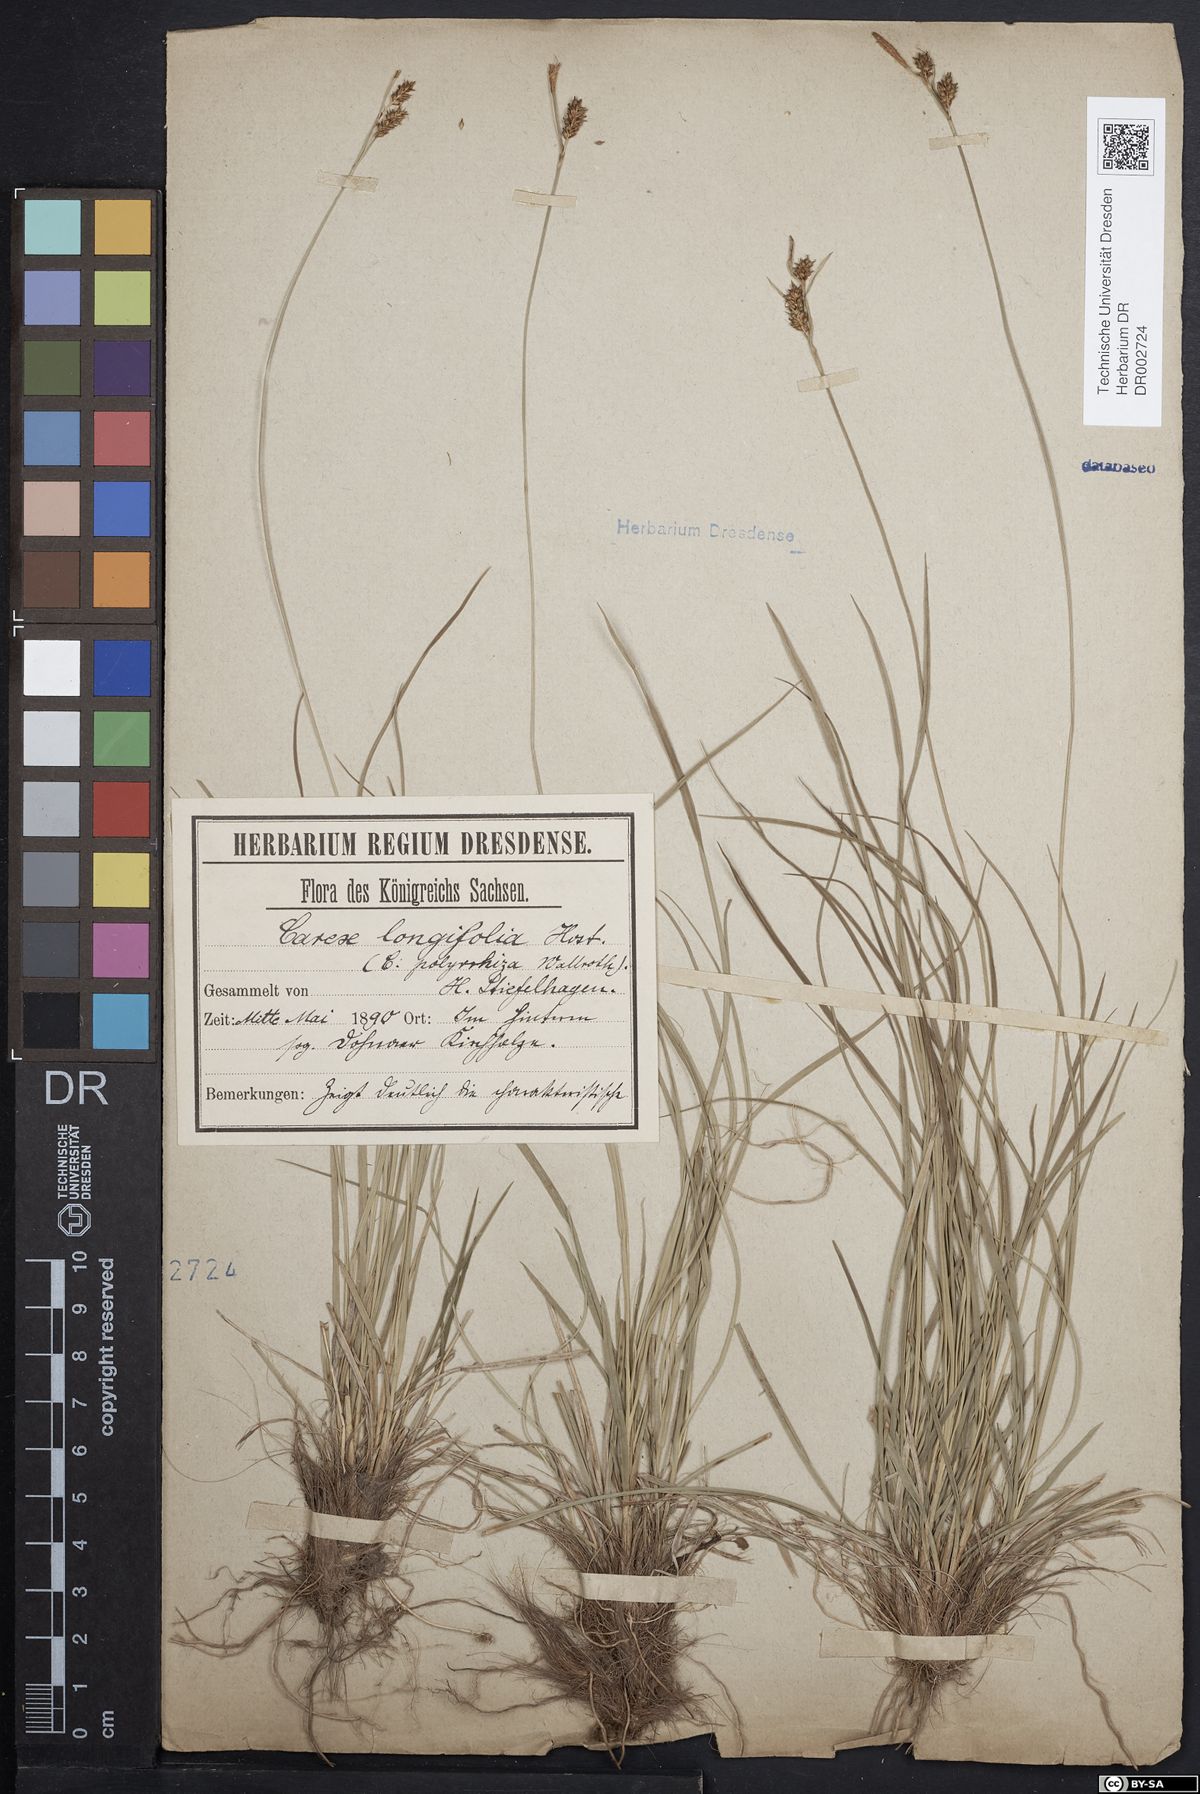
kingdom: Plantae
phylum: Tracheophyta
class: Liliopsida
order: Poales
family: Cyperaceae
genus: Carex
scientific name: Carex umbrosa
